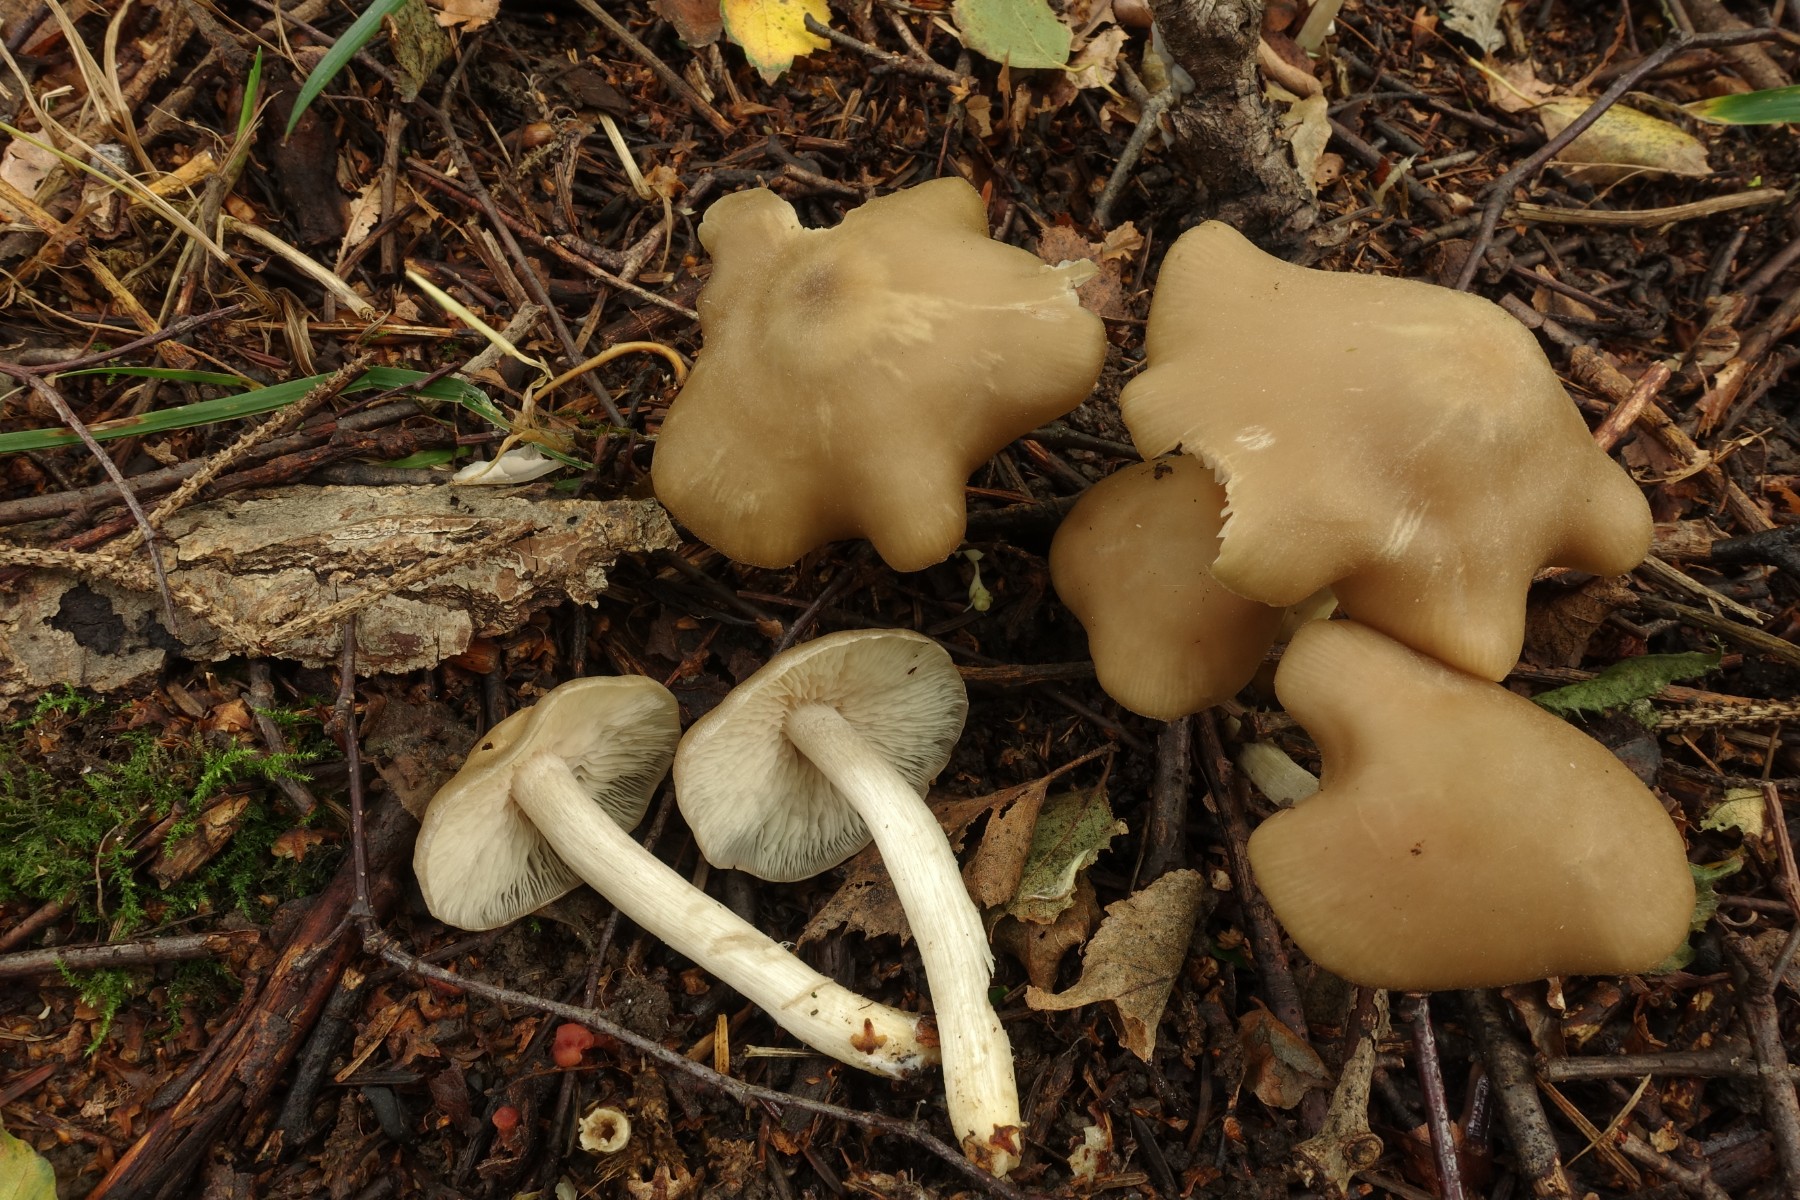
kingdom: Fungi
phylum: Basidiomycota
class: Agaricomycetes
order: Agaricales
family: Entolomataceae
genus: Entoloma
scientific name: Entoloma sericatum
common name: rank rødblad
